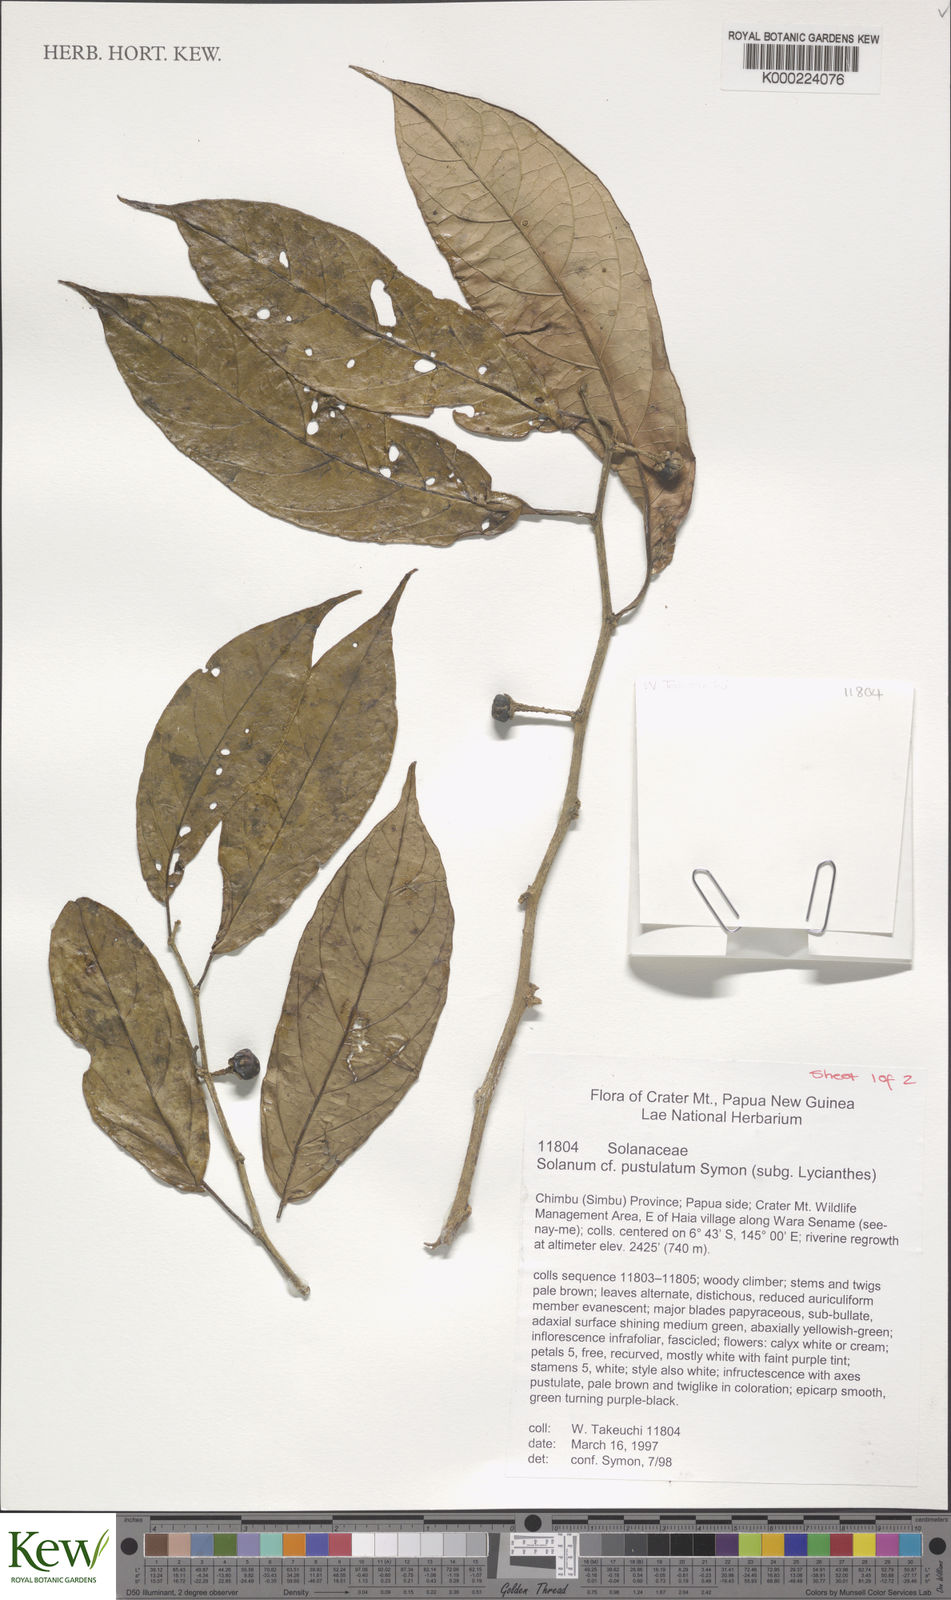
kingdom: Plantae
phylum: Tracheophyta
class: Magnoliopsida
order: Solanales
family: Solanaceae
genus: Lycianthes
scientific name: Lycianthes rostellata
